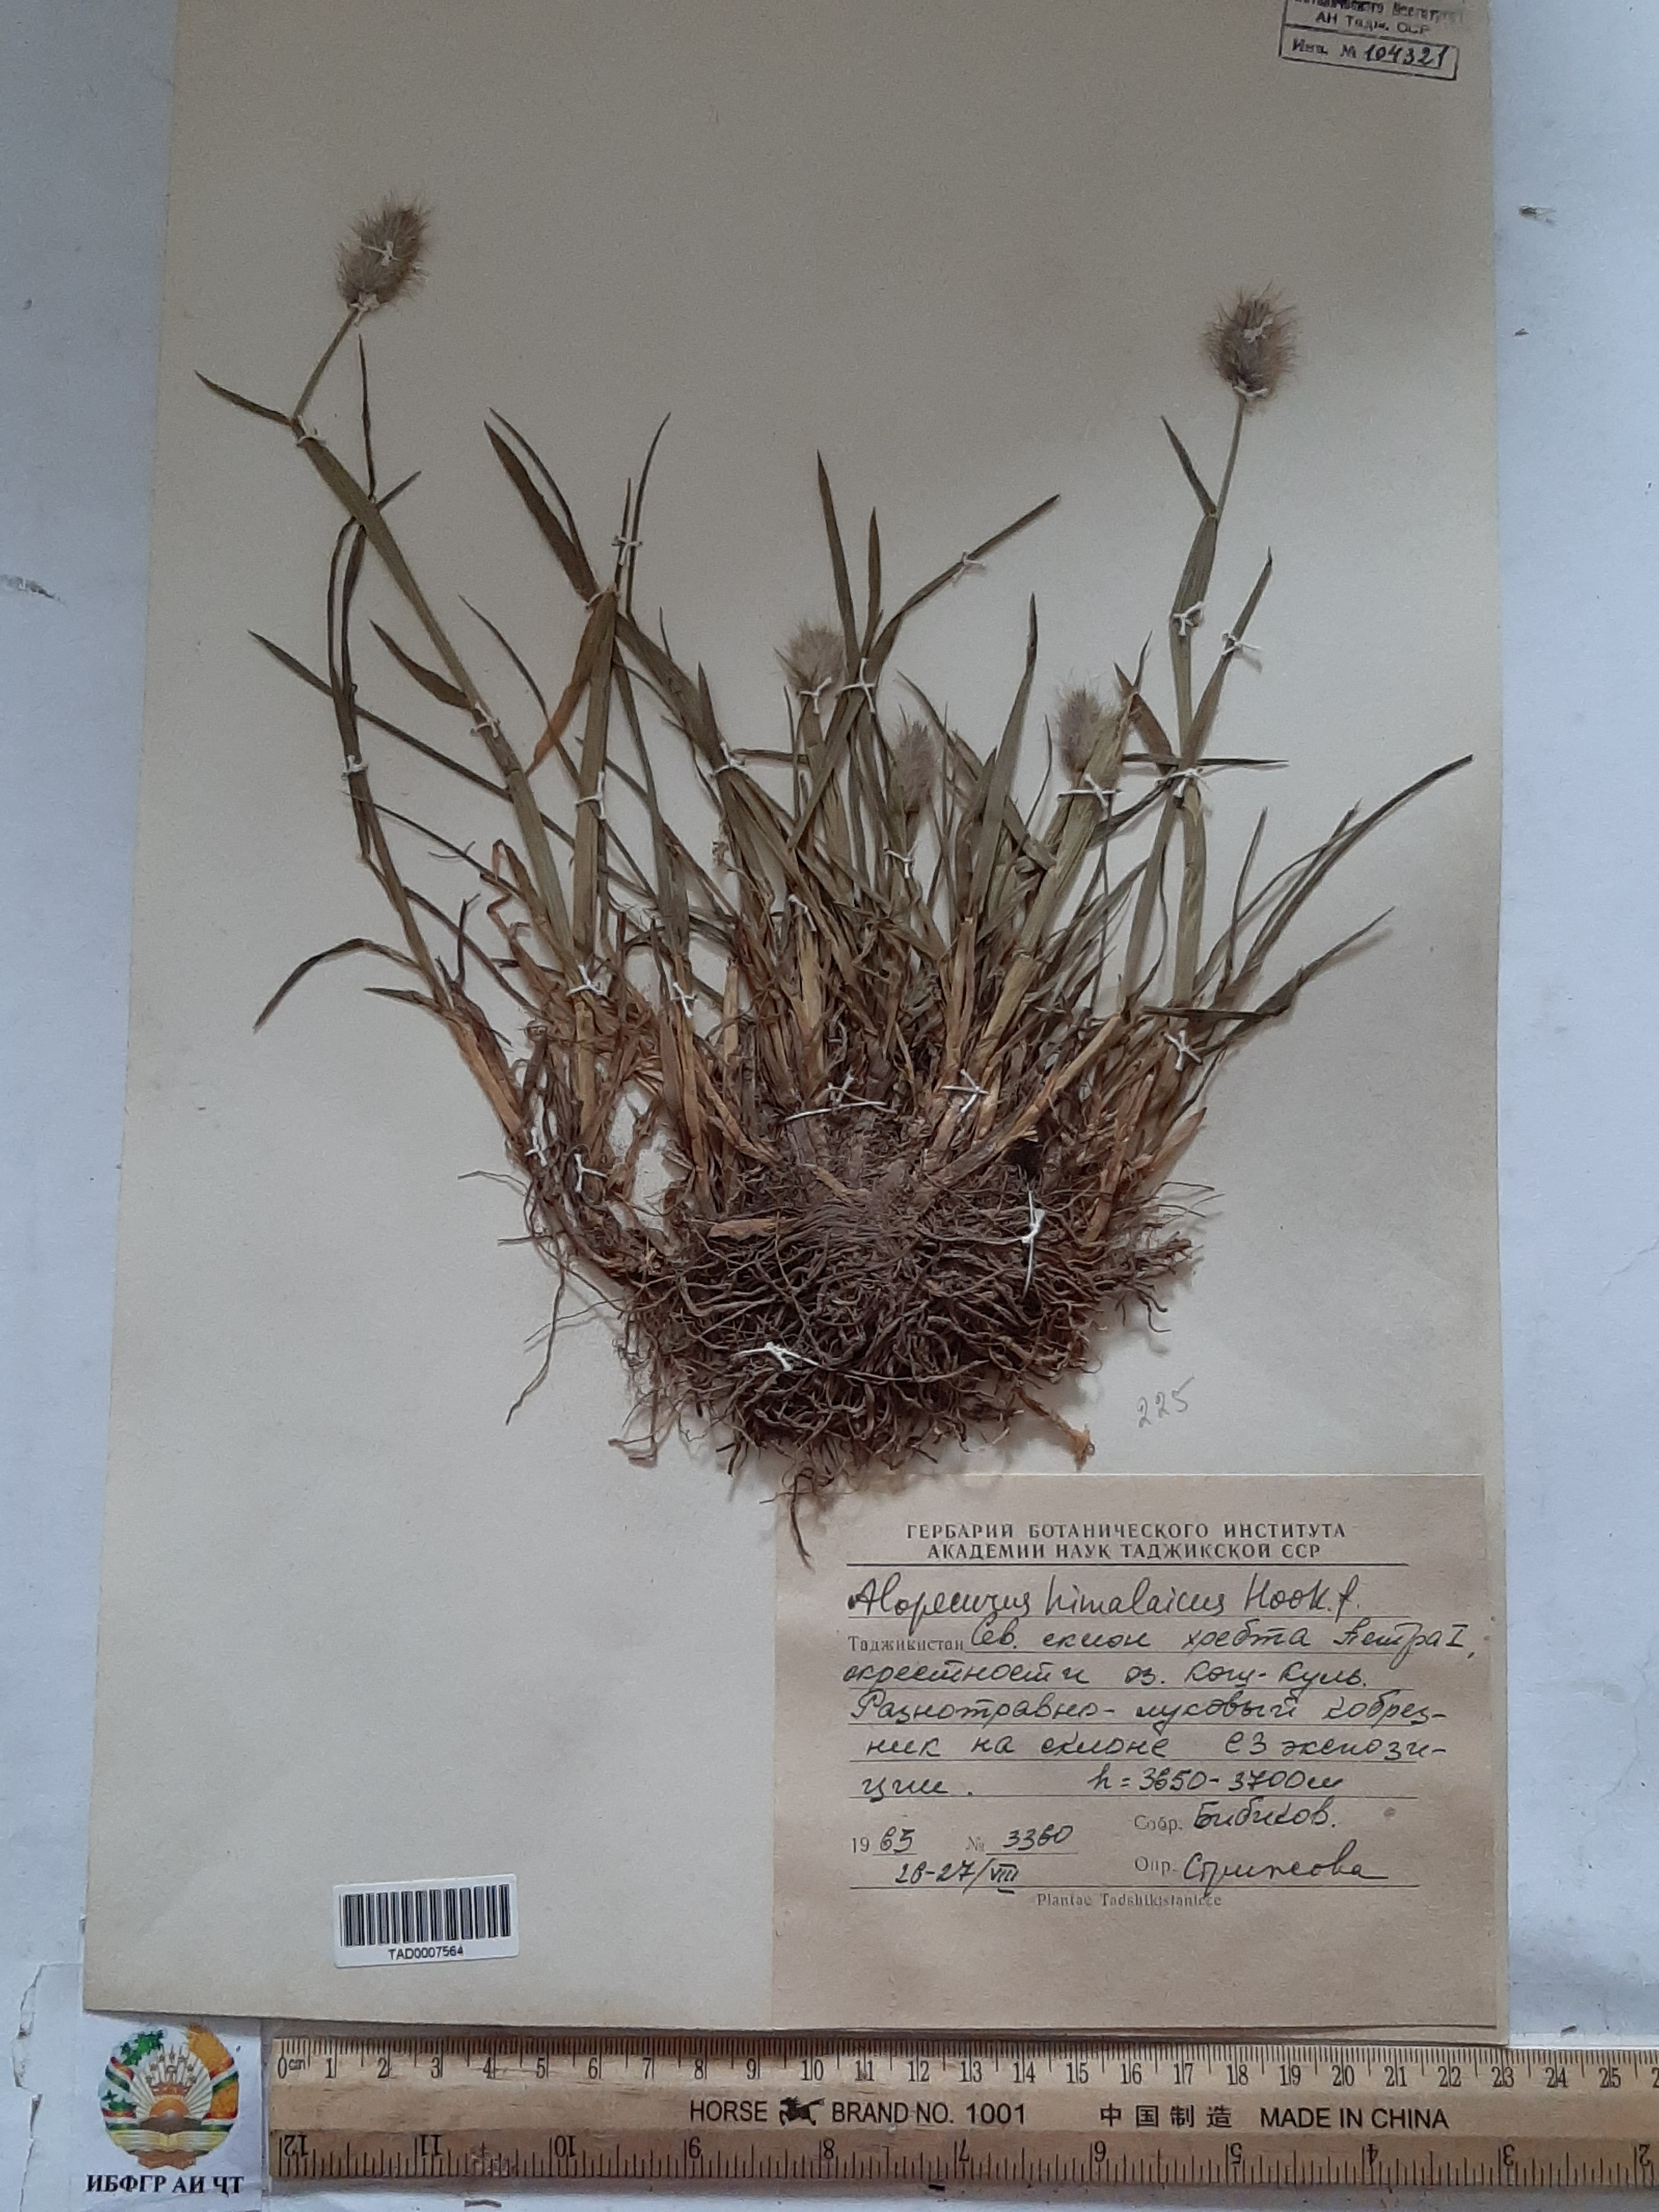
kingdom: Plantae
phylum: Tracheophyta
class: Liliopsida
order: Poales
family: Poaceae
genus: Alopecurus
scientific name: Alopecurus himalaicus
